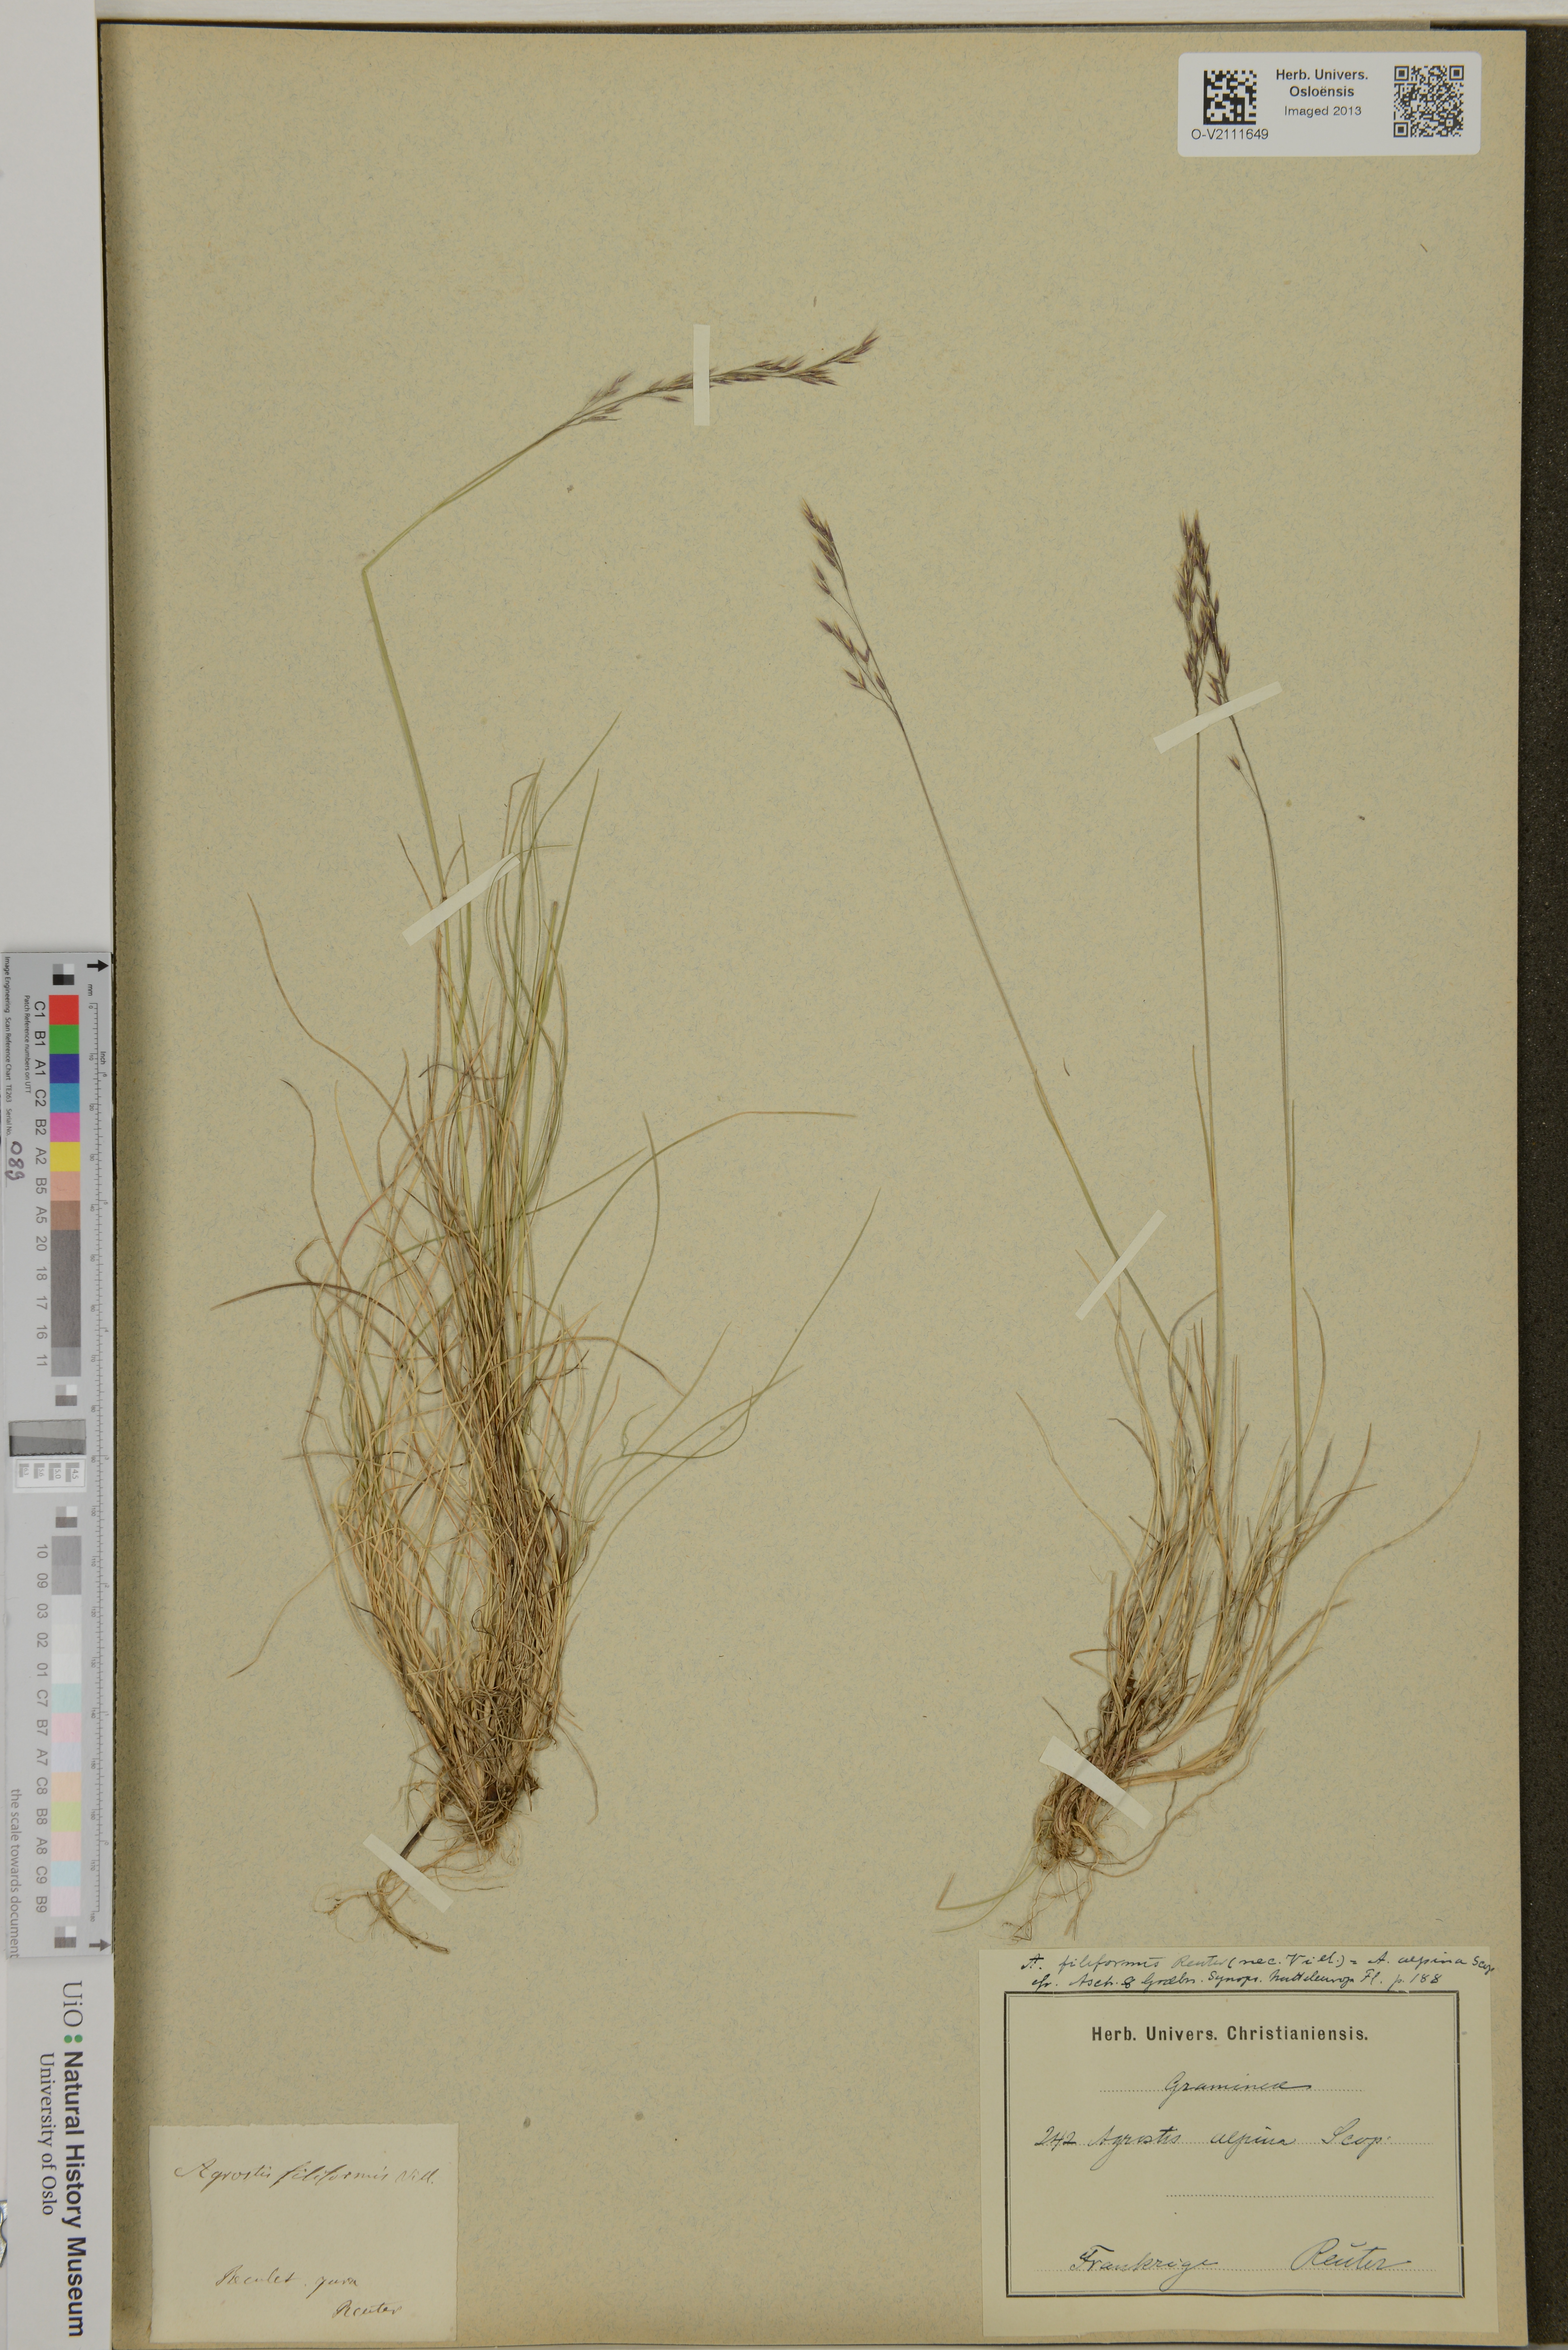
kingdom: Plantae
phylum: Tracheophyta
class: Liliopsida
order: Poales
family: Poaceae
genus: Agrostis
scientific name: Agrostis mertensii
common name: Northern bent
